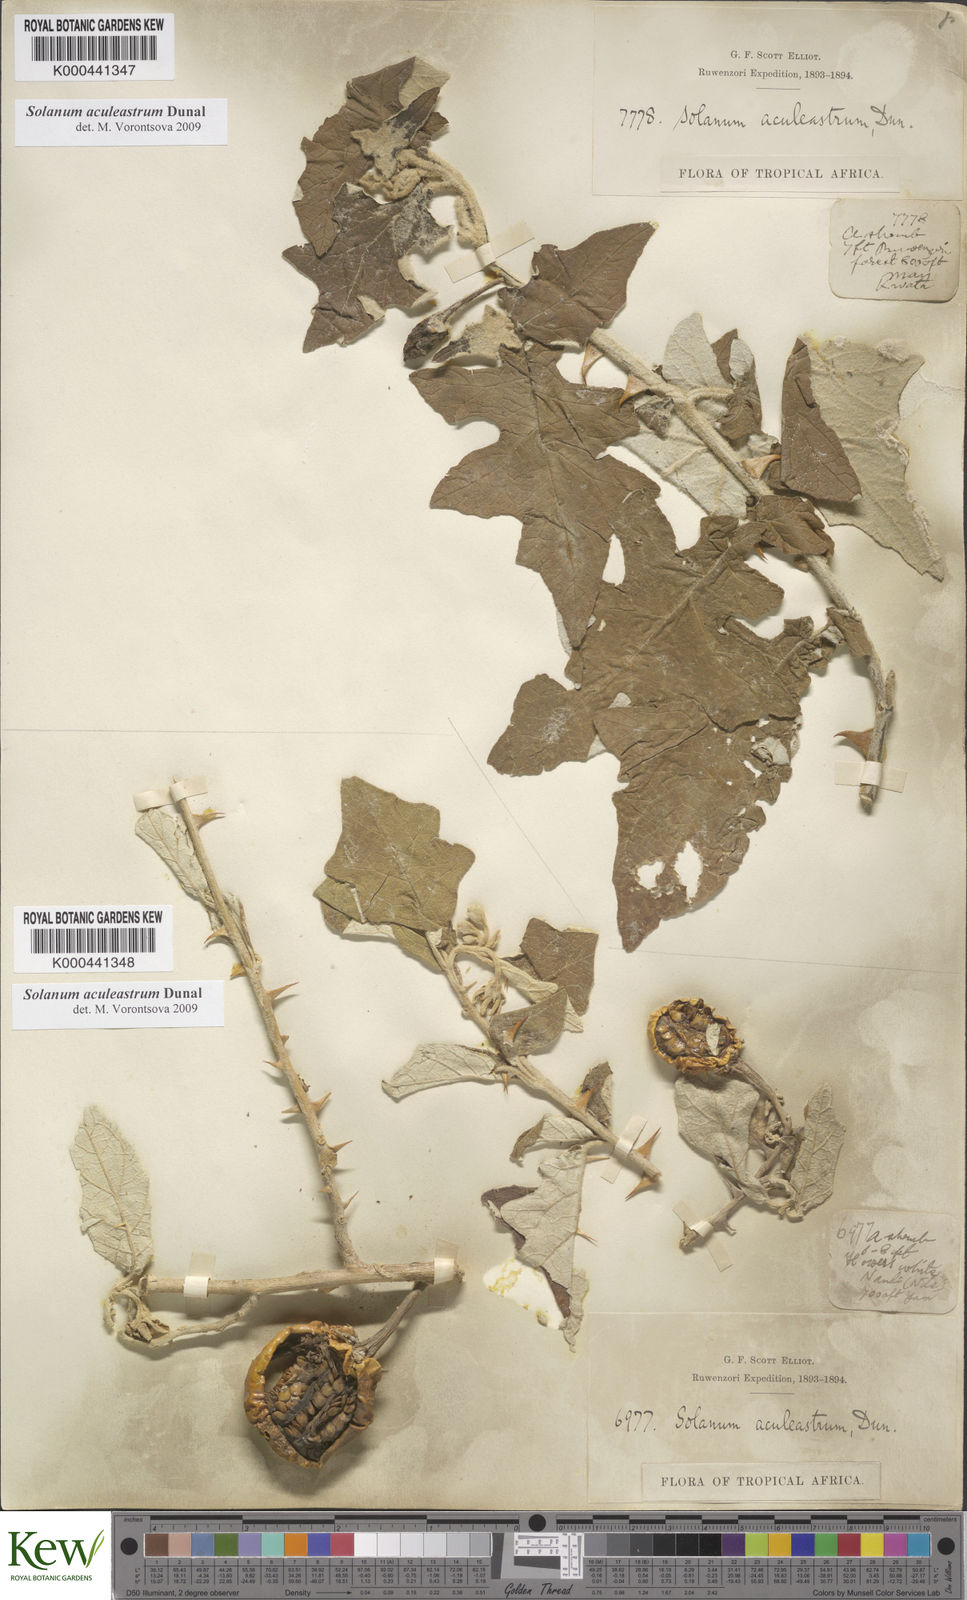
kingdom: Plantae
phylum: Tracheophyta
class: Magnoliopsida
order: Solanales
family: Solanaceae
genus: Solanum
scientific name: Solanum aculeastrum
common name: Goat bitter-apple
